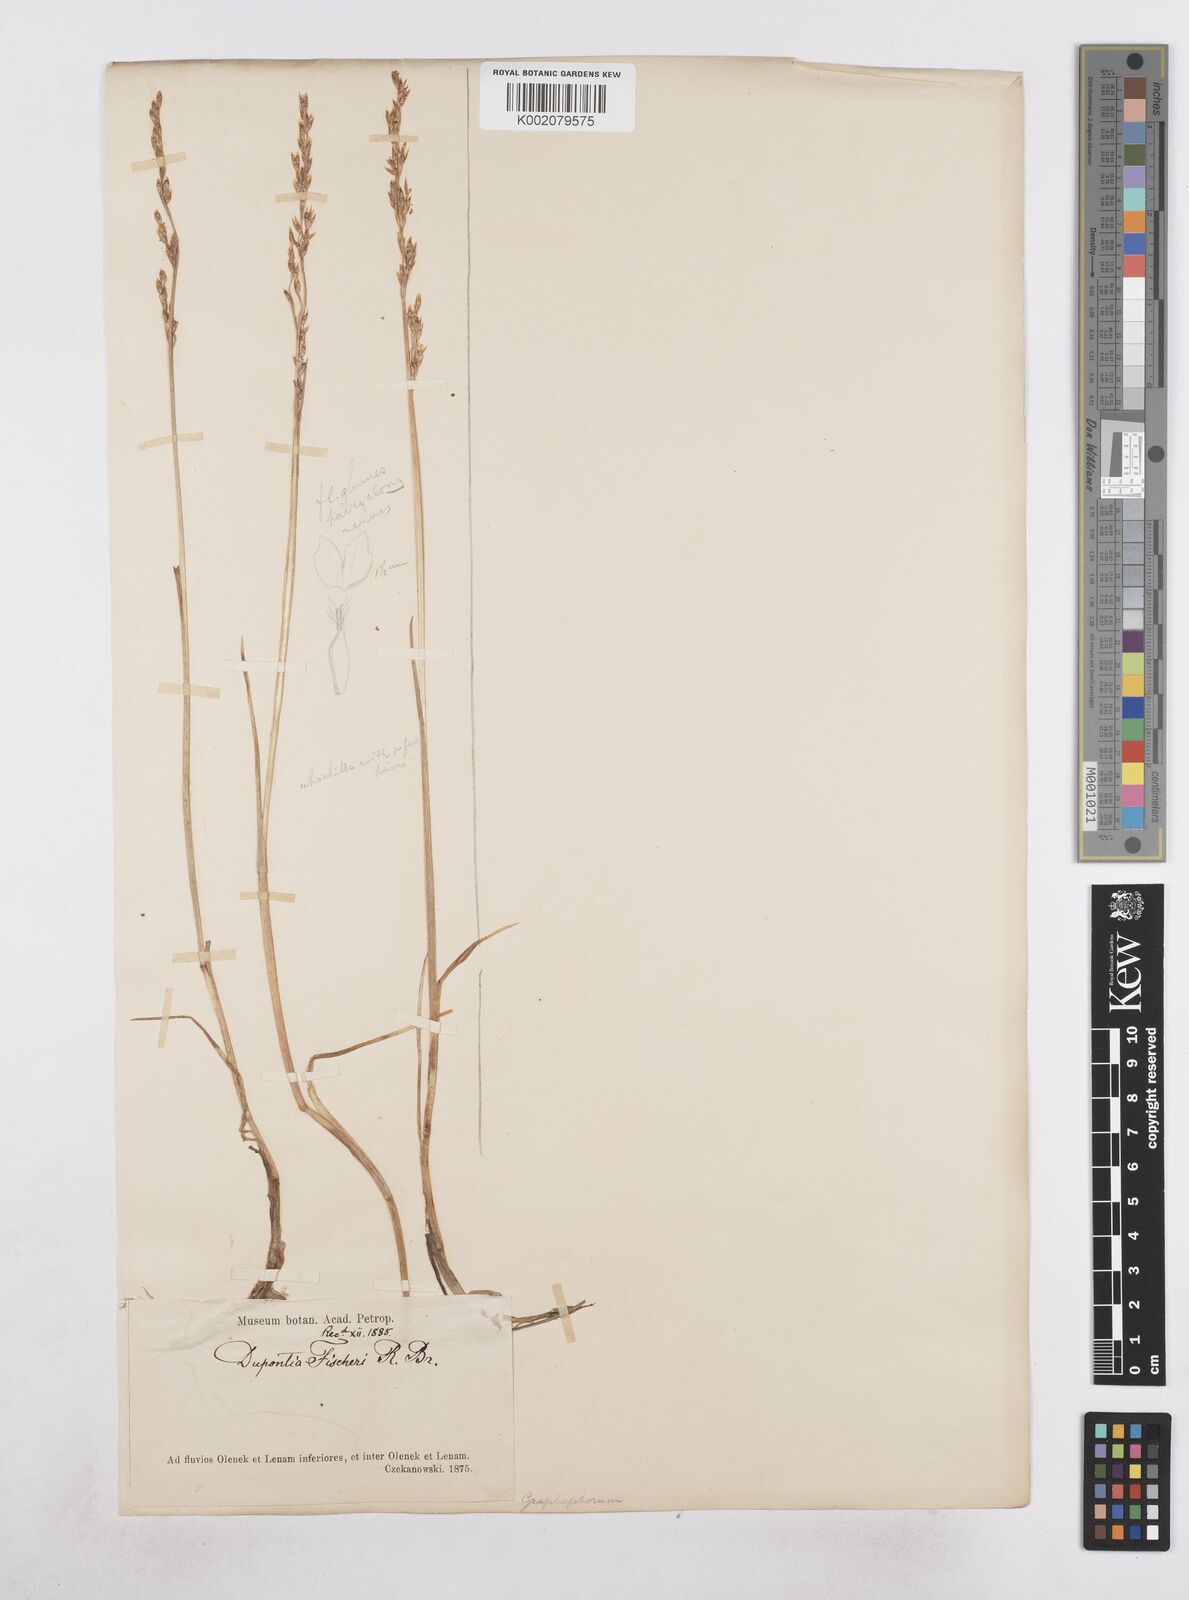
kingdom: Plantae
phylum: Tracheophyta
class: Liliopsida
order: Poales
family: Poaceae
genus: Dupontia
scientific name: Dupontia fisheri
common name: Tundra grass
